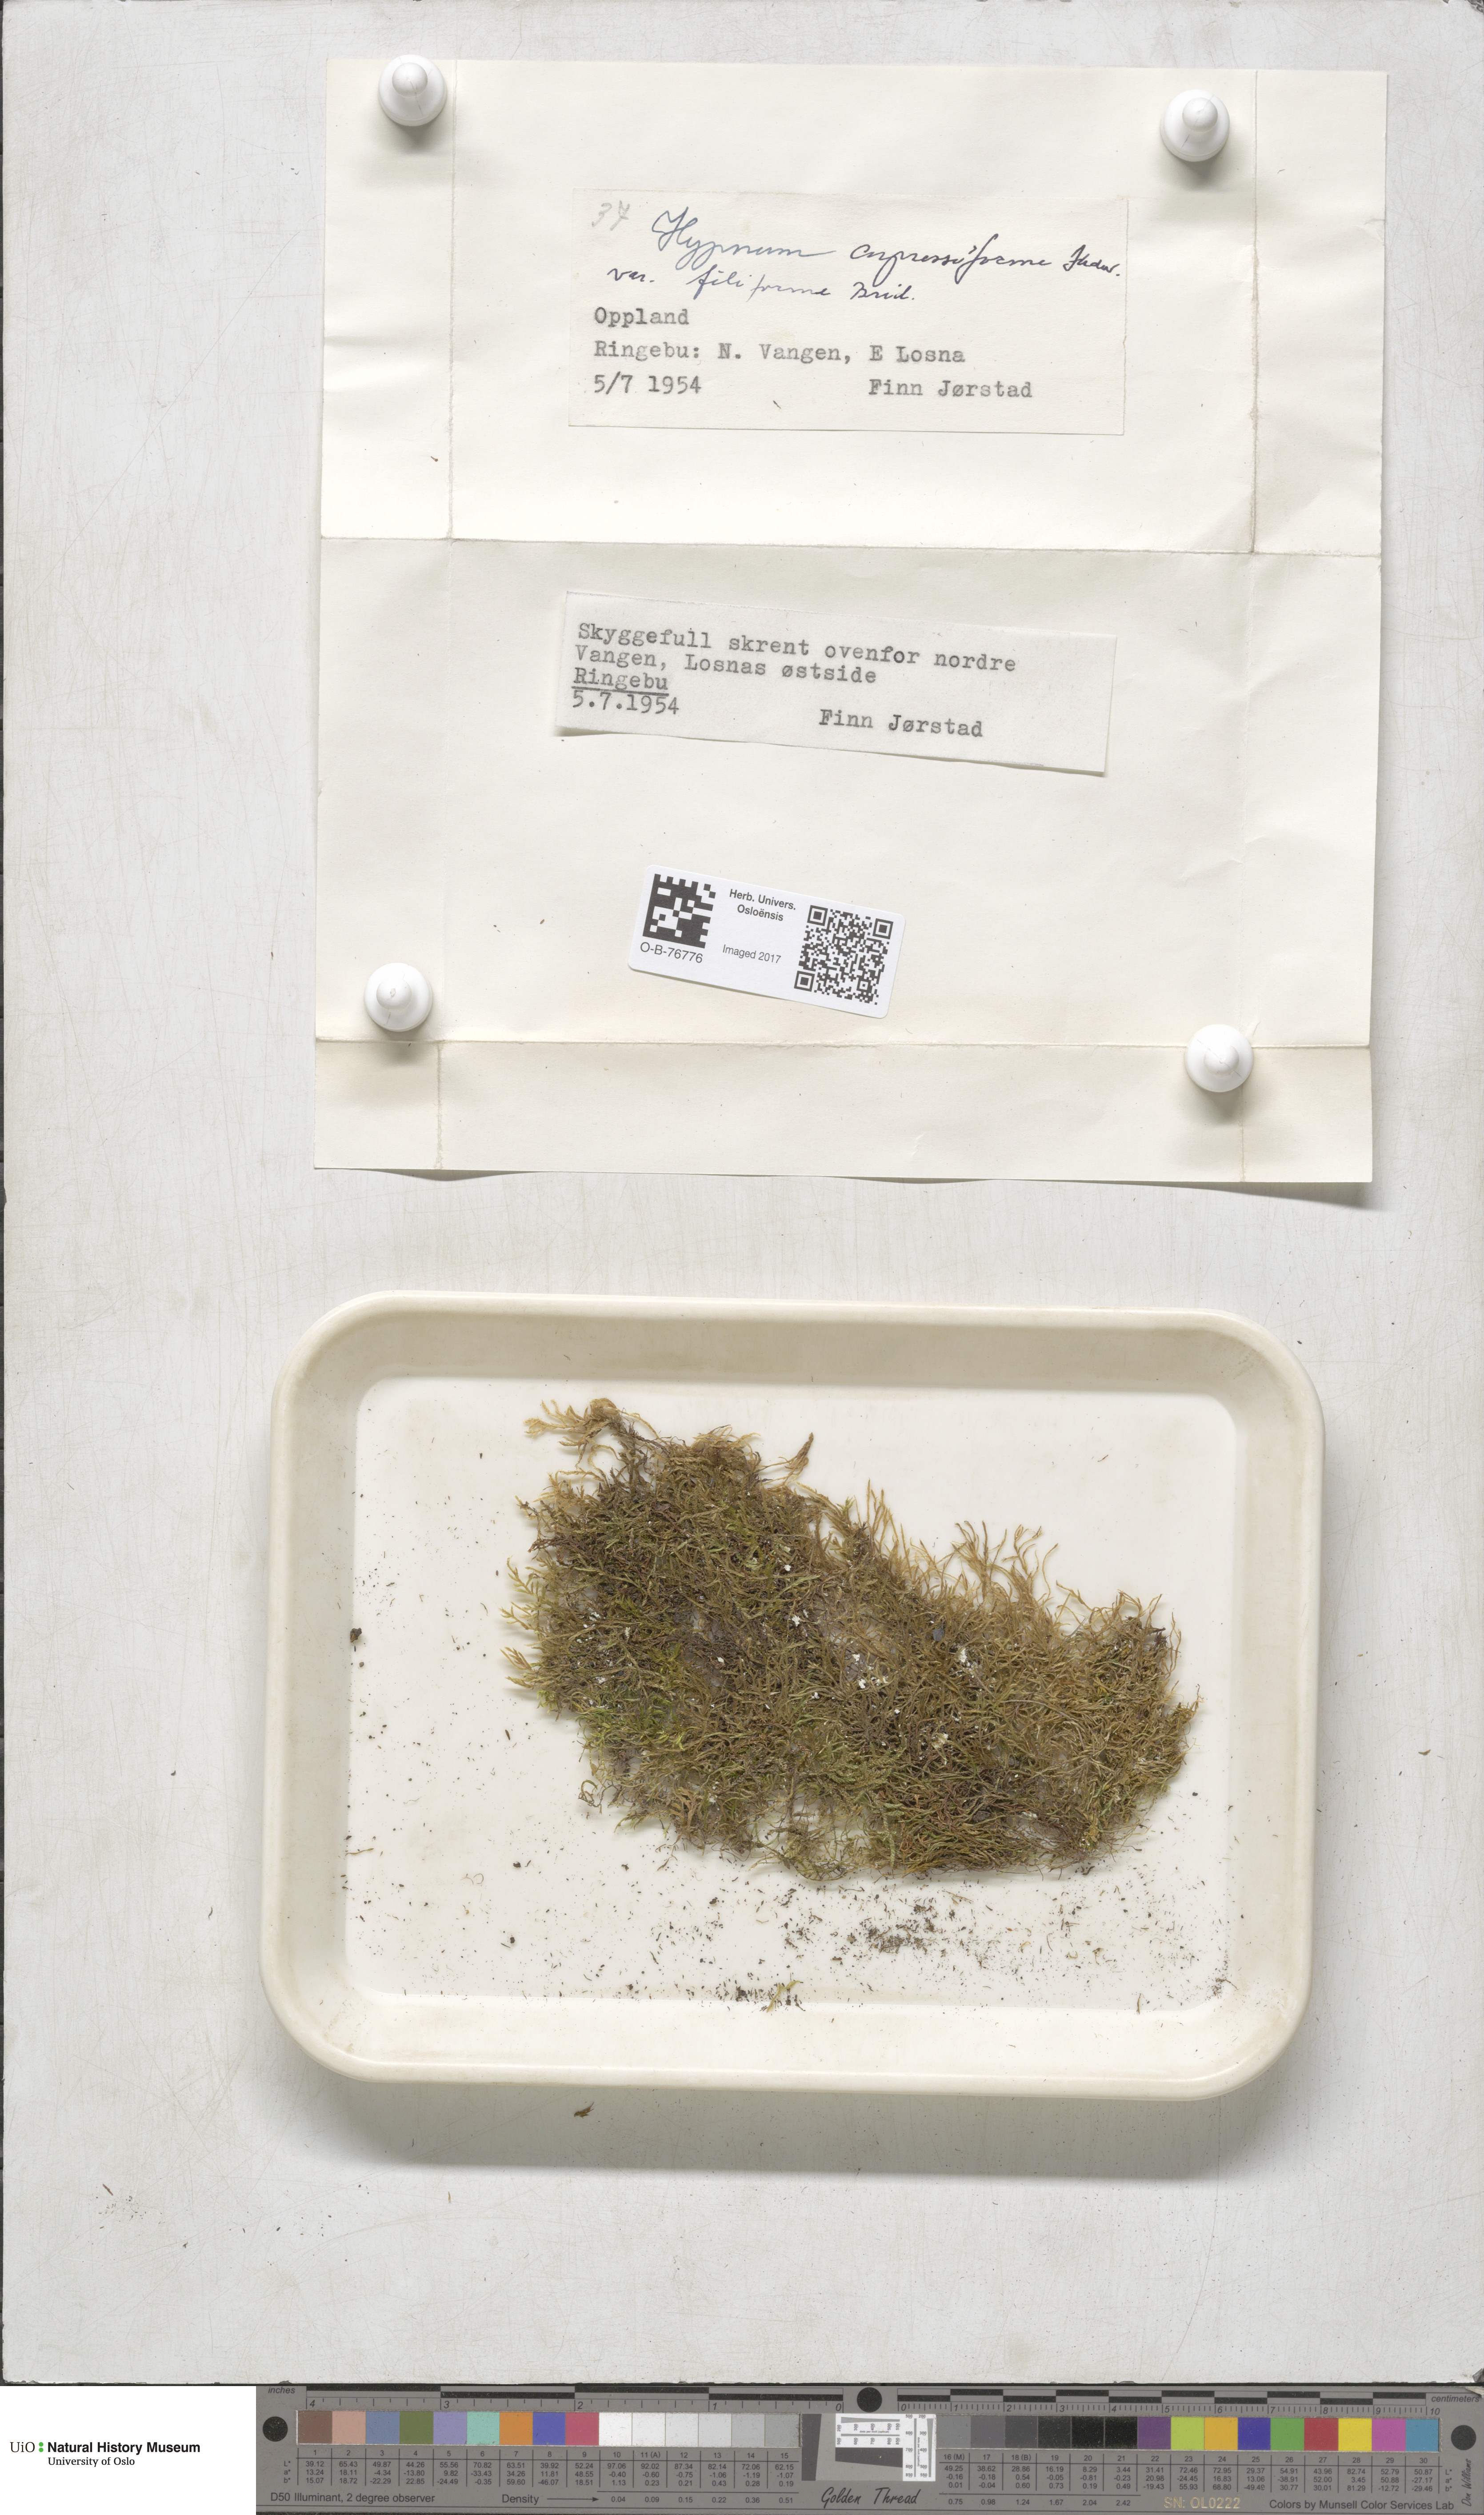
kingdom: Plantae
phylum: Bryophyta
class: Bryopsida
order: Hypnales
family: Hypnaceae
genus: Hypnum
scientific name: Hypnum andoi
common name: Ando's plait moss
